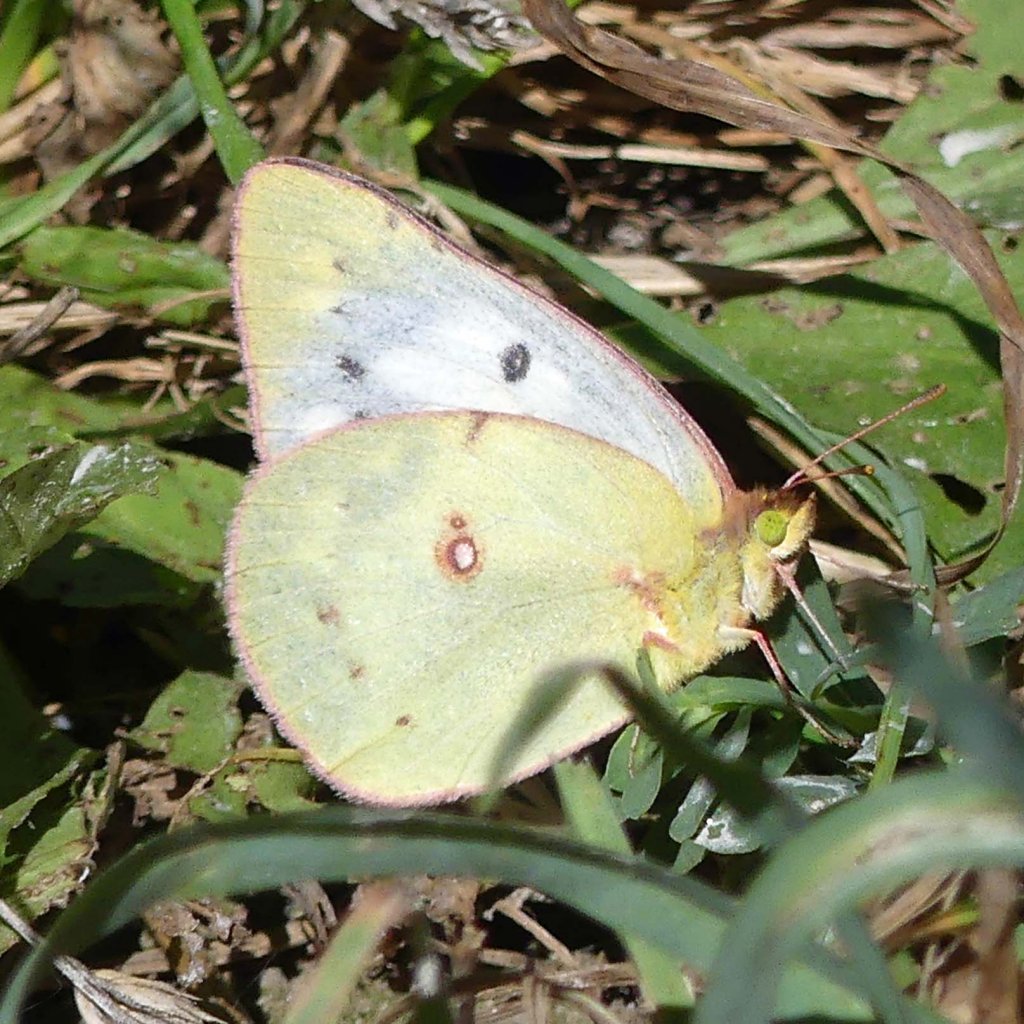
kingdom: Animalia
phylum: Arthropoda
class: Insecta
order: Lepidoptera
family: Pieridae
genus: Colias
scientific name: Colias philodice
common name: Clouded Sulphur
